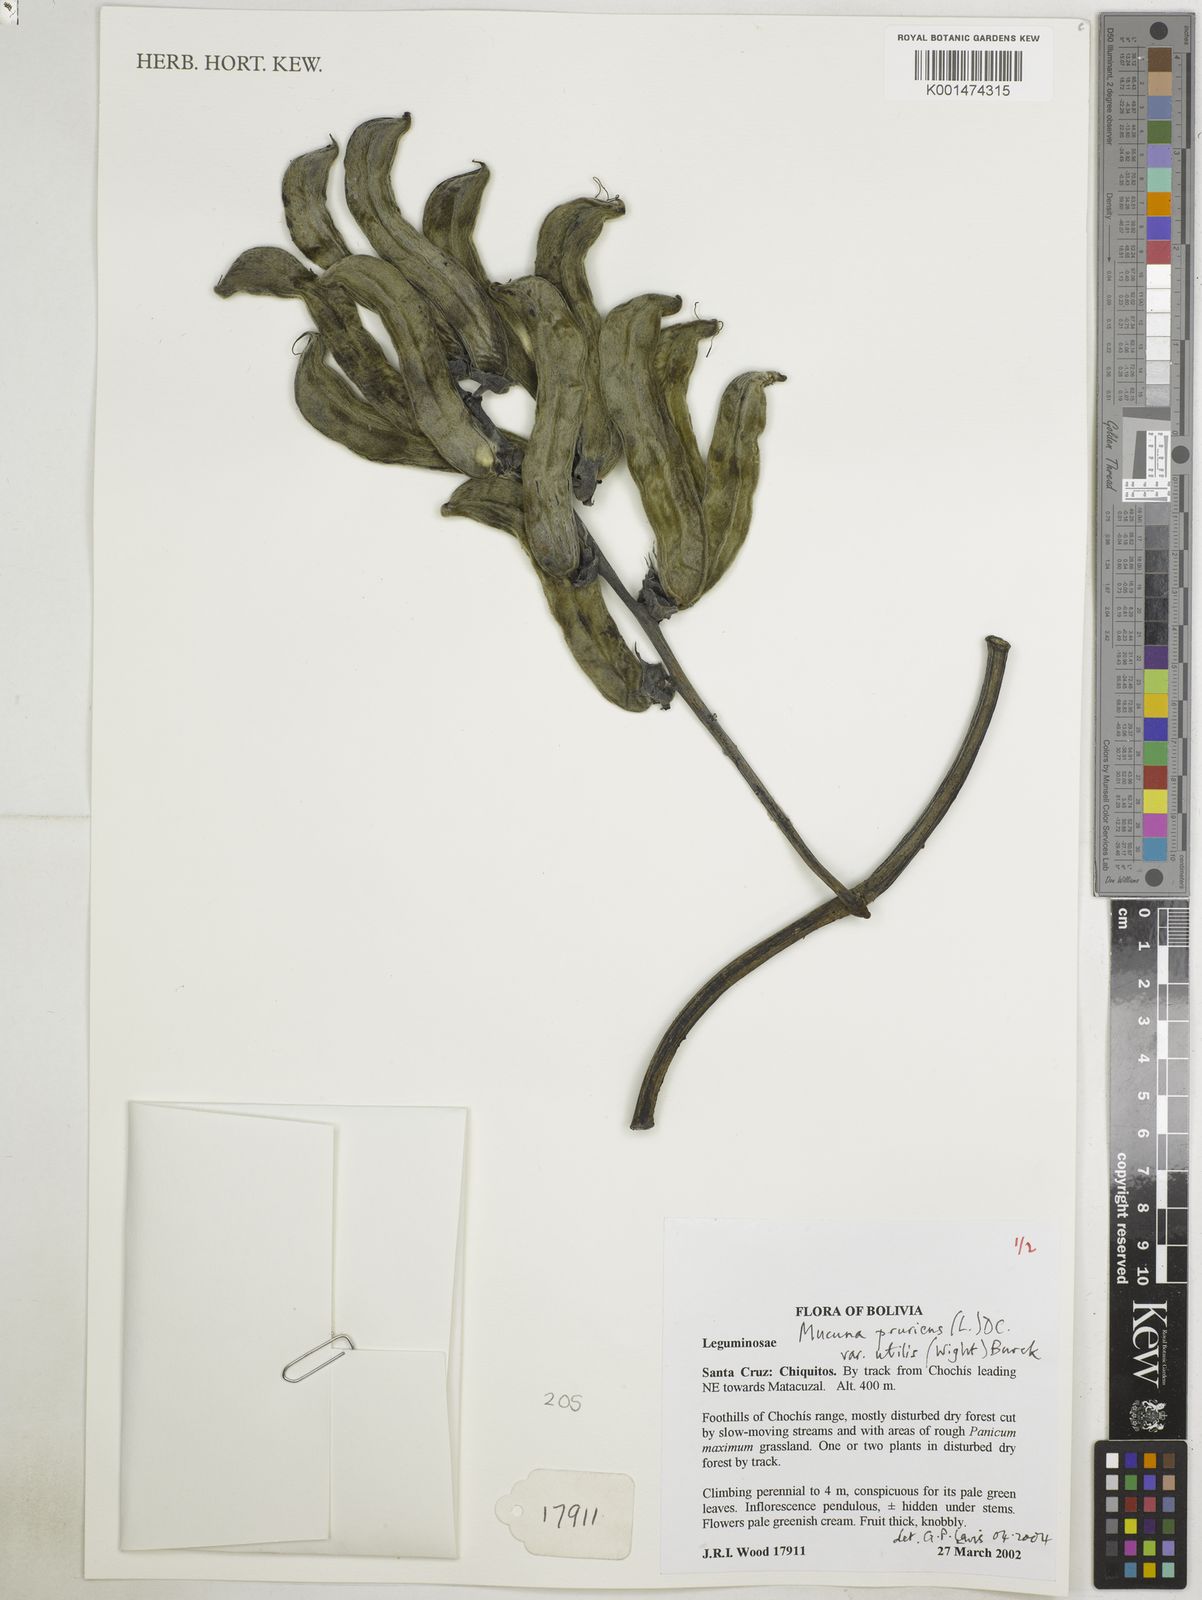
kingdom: Plantae
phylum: Tracheophyta
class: Magnoliopsida
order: Fabales
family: Fabaceae
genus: Mucuna
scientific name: Mucuna pruriens
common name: Cow-itch
